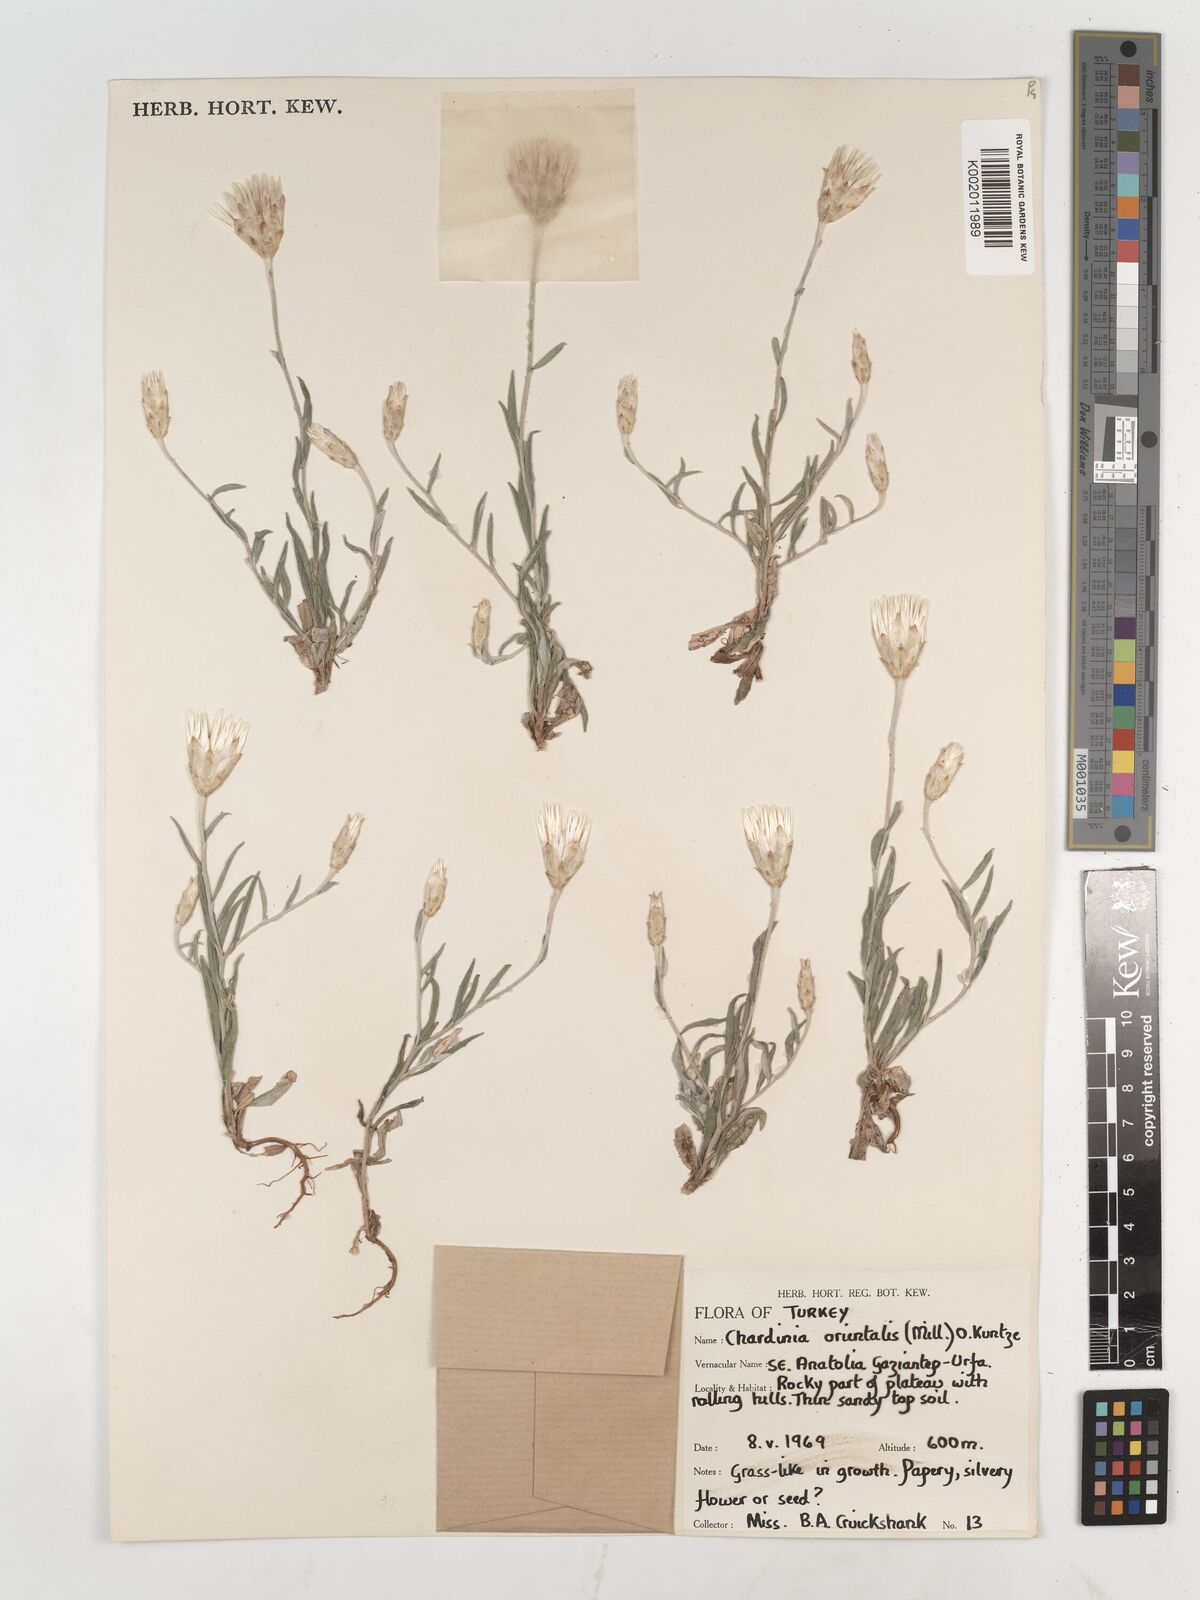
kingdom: Plantae
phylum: Tracheophyta
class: Magnoliopsida
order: Asterales
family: Asteraceae
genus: Chardinia
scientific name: Chardinia orientalis
